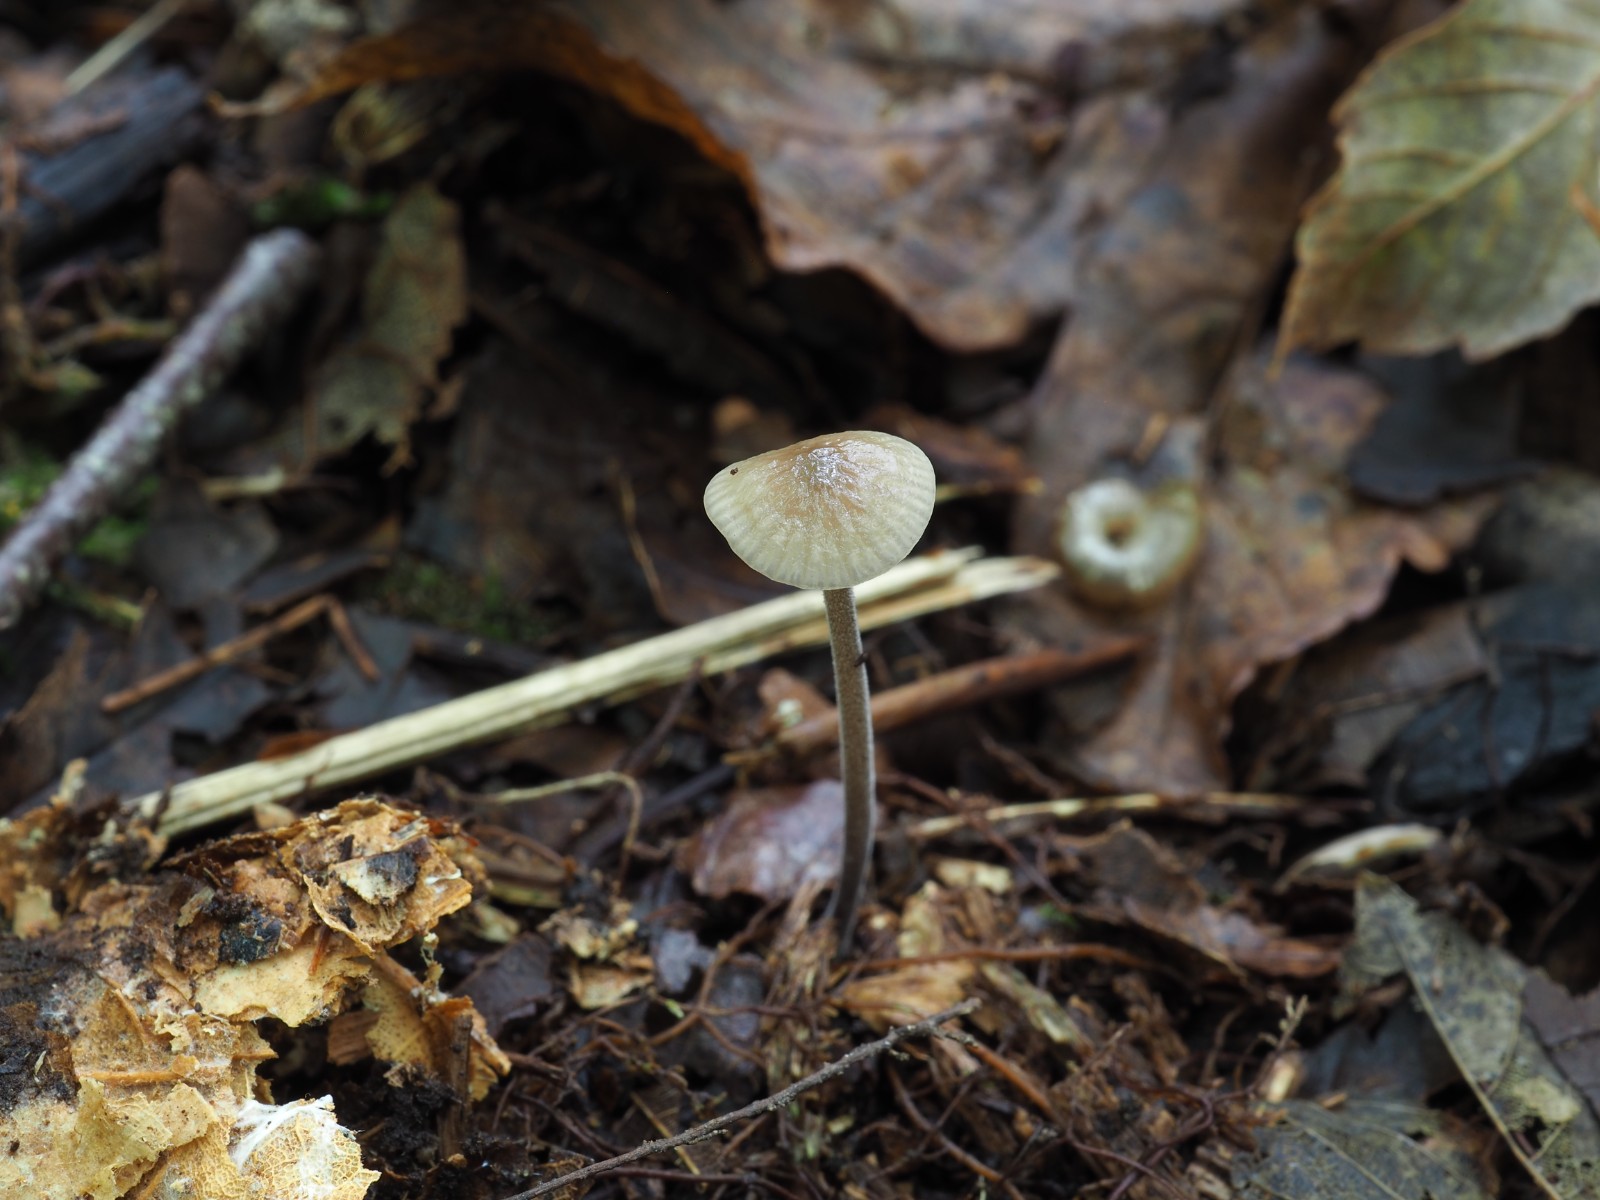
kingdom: Fungi
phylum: Basidiomycota
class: Agaricomycetes
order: Agaricales
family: Omphalotaceae
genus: Mycetinis
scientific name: Mycetinis alliaceus
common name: stor løghat
